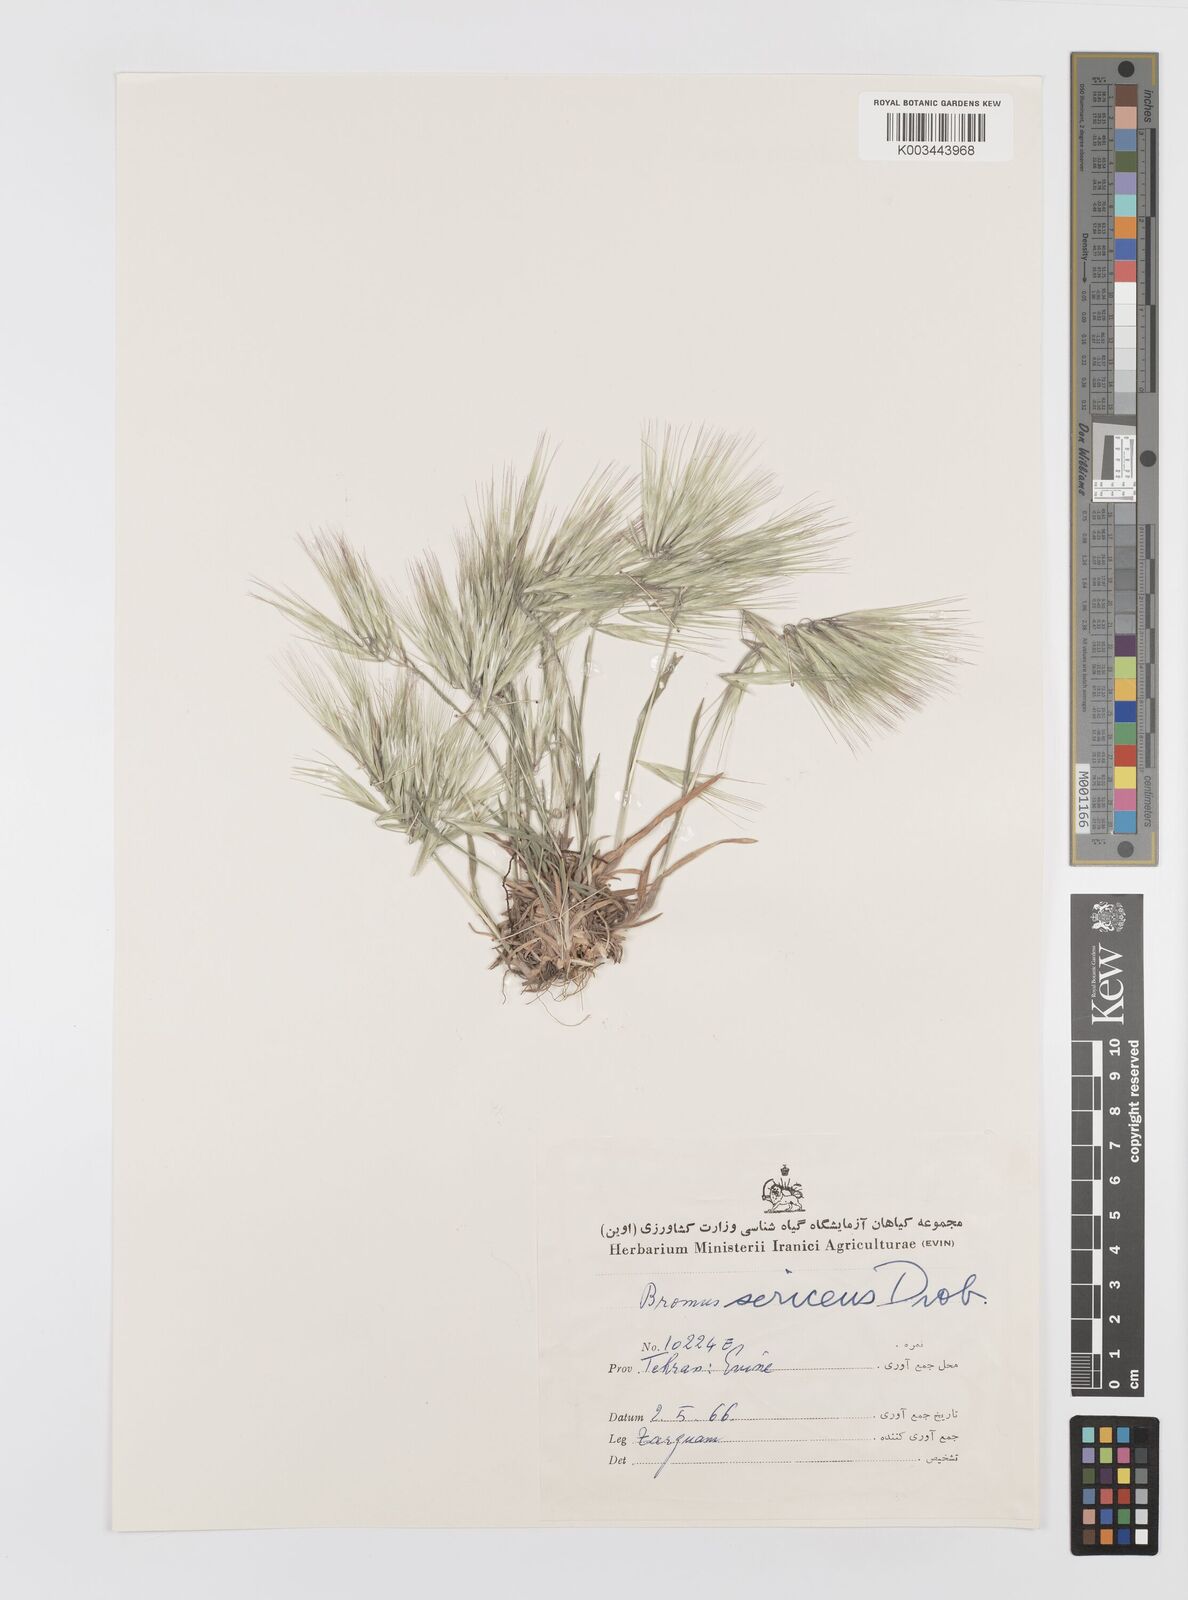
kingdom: Plantae
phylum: Tracheophyta
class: Liliopsida
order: Poales
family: Poaceae
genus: Bromus
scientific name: Bromus moeszii
